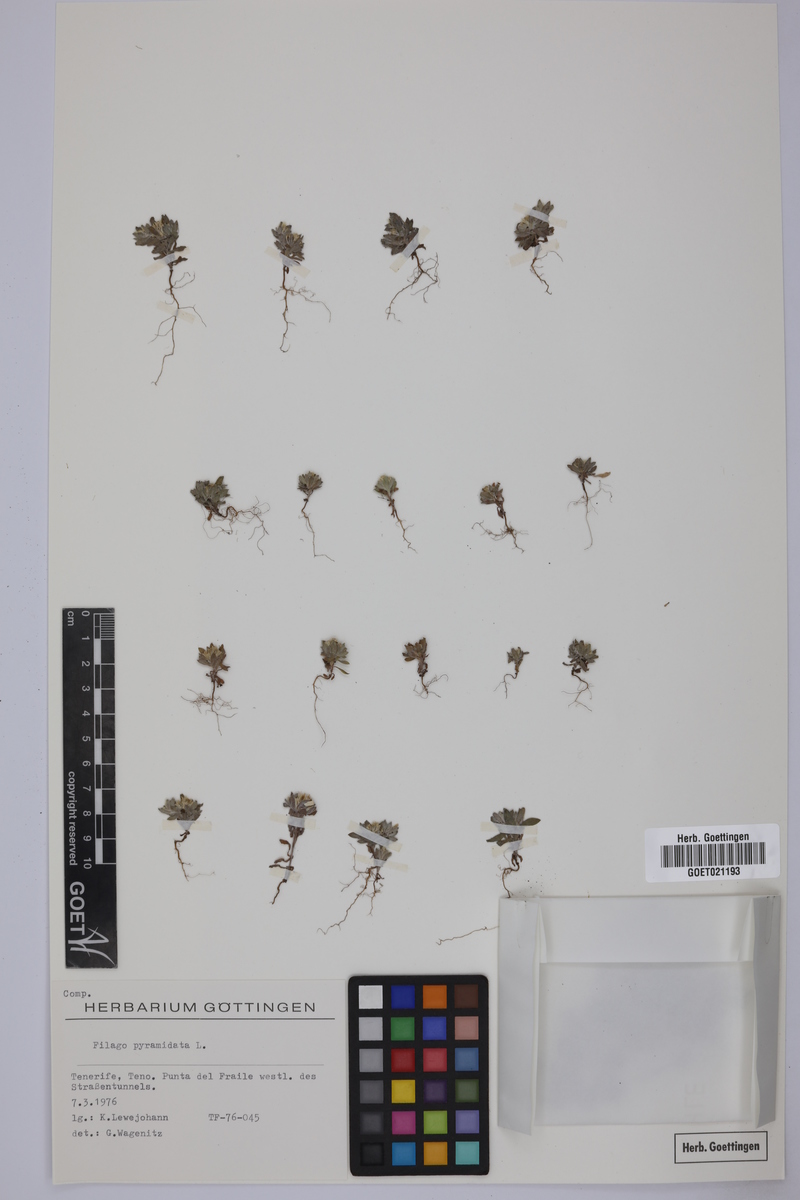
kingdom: Plantae
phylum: Tracheophyta
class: Magnoliopsida
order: Asterales
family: Asteraceae
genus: Filago
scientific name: Filago pyramidata
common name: Broad-leaved cudweed
